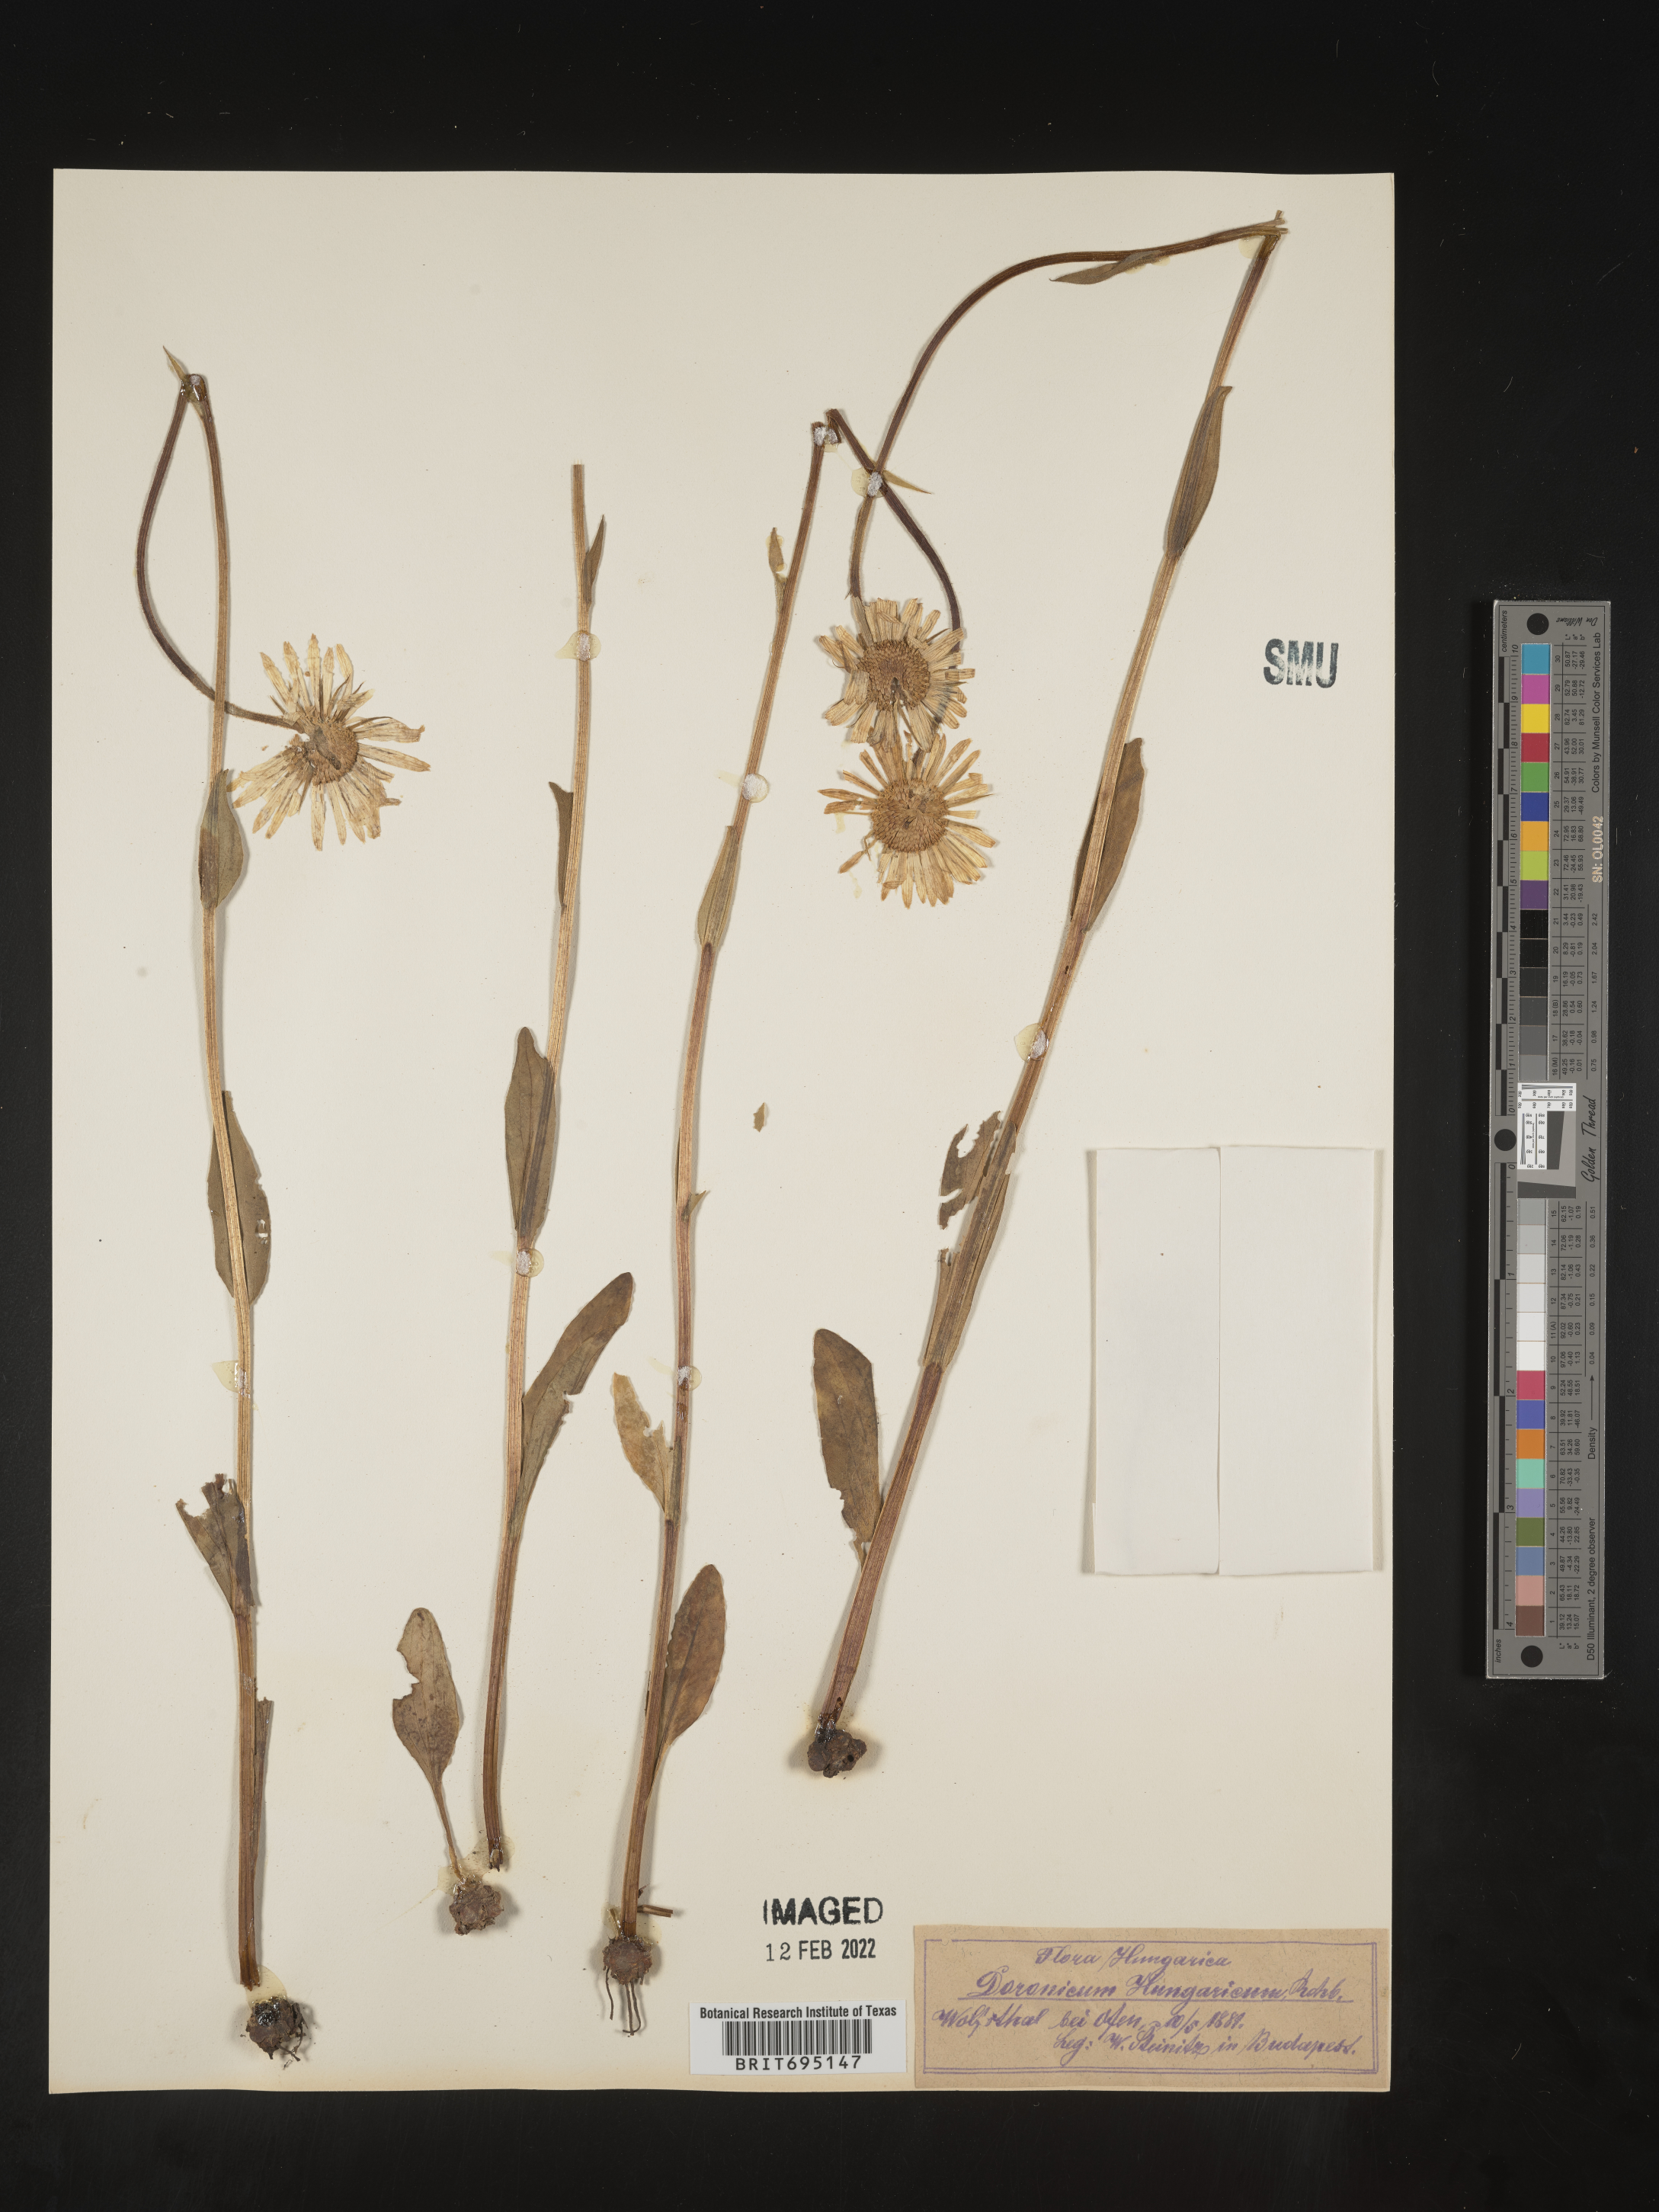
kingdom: Plantae
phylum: Tracheophyta
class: Magnoliopsida
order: Asterales
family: Asteraceae
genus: Doronicum
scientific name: Doronicum
